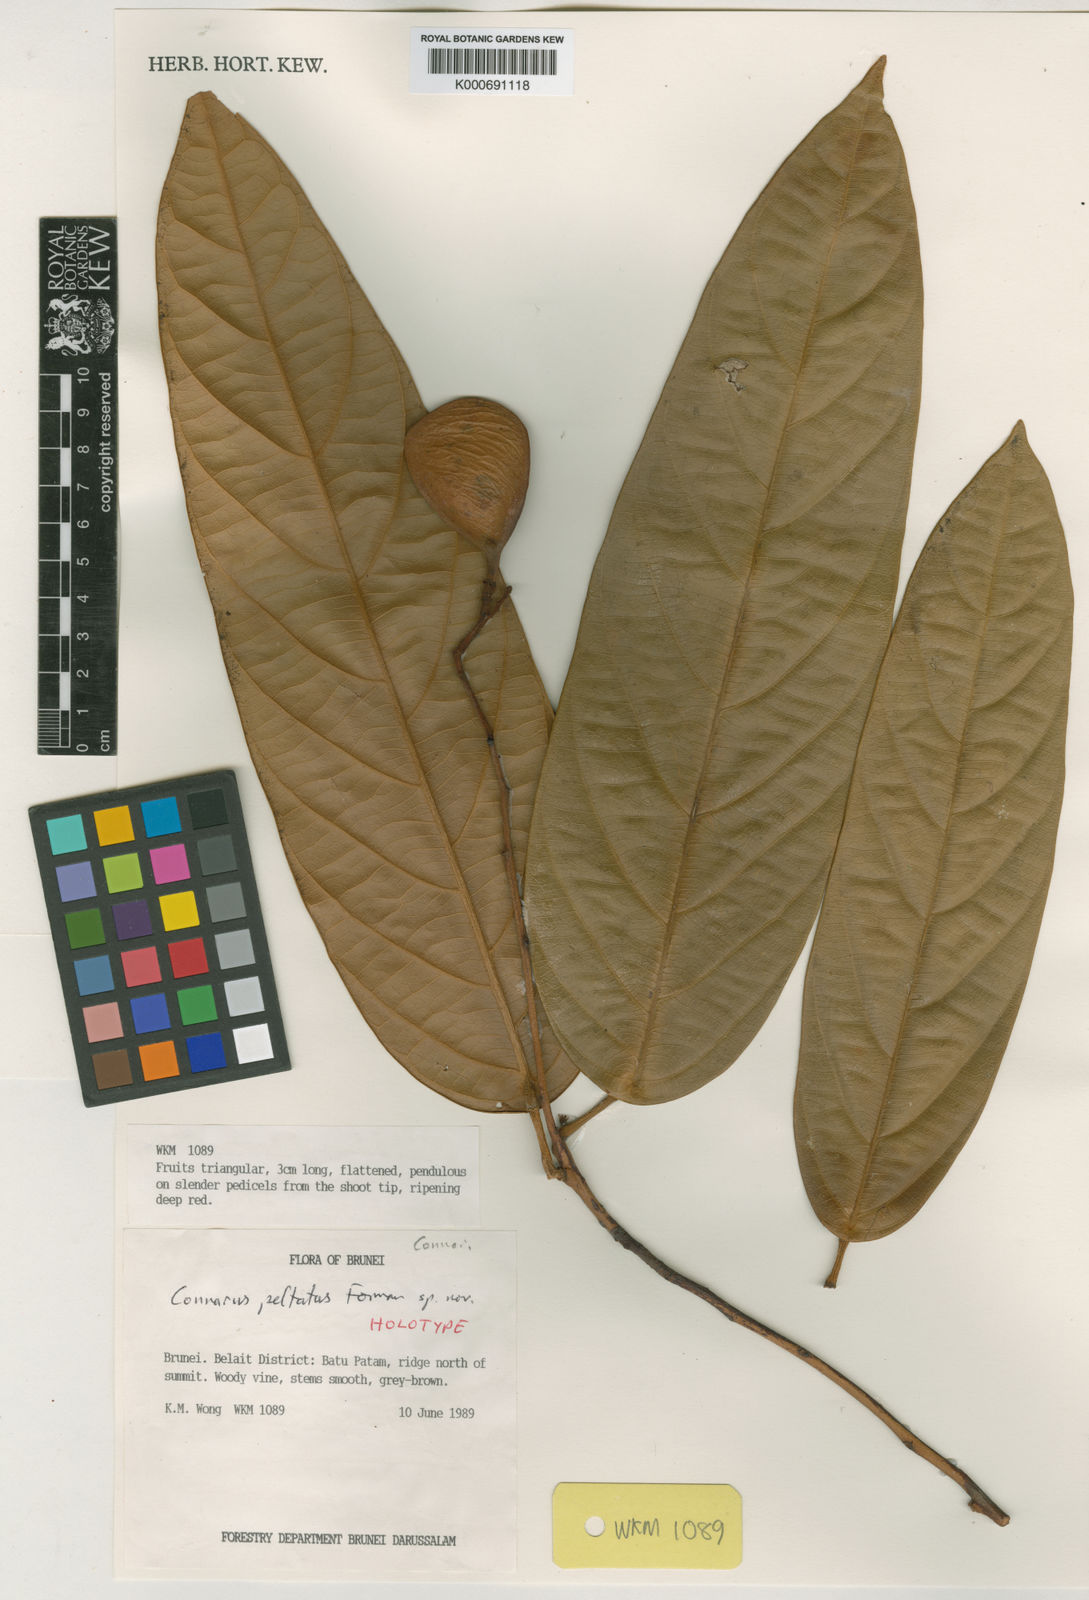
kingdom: Plantae
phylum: Tracheophyta
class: Magnoliopsida
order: Oxalidales
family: Connaraceae
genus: Connarus
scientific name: Connarus peltatus
